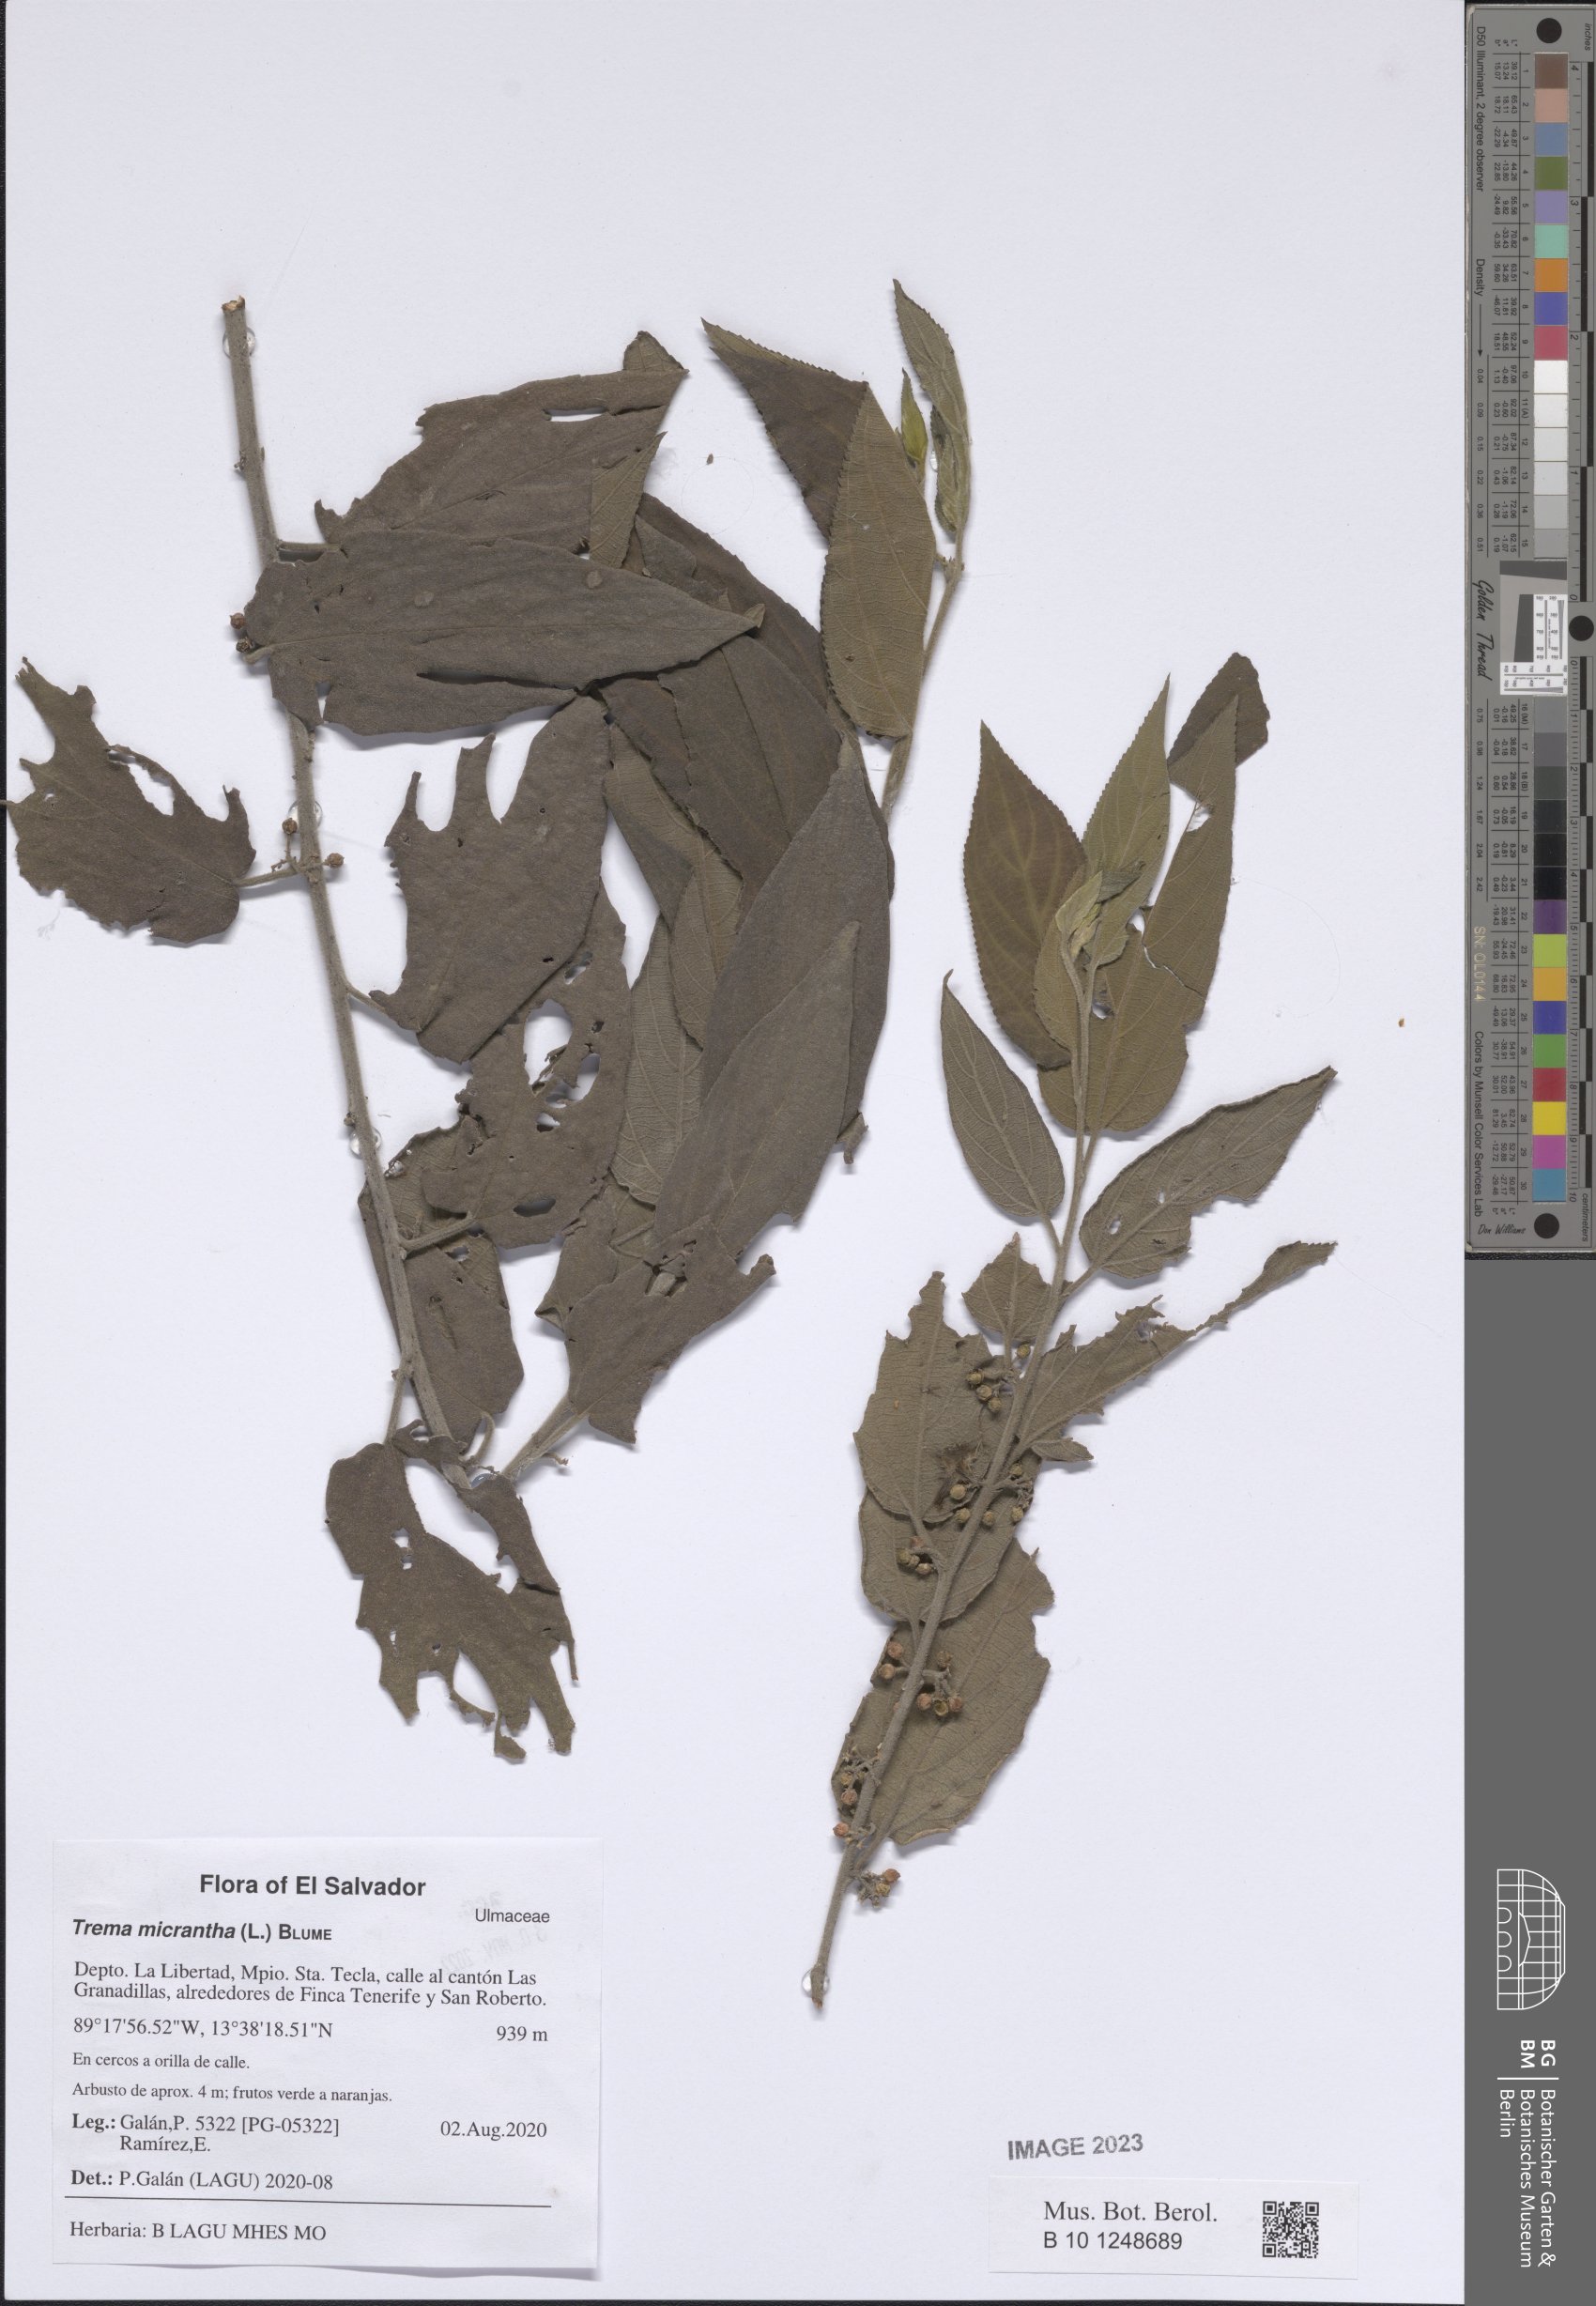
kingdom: Plantae
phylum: Tracheophyta
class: Magnoliopsida
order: Rosales
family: Cannabaceae
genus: Trema
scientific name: Trema micranthum
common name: Jamaican nettletree
